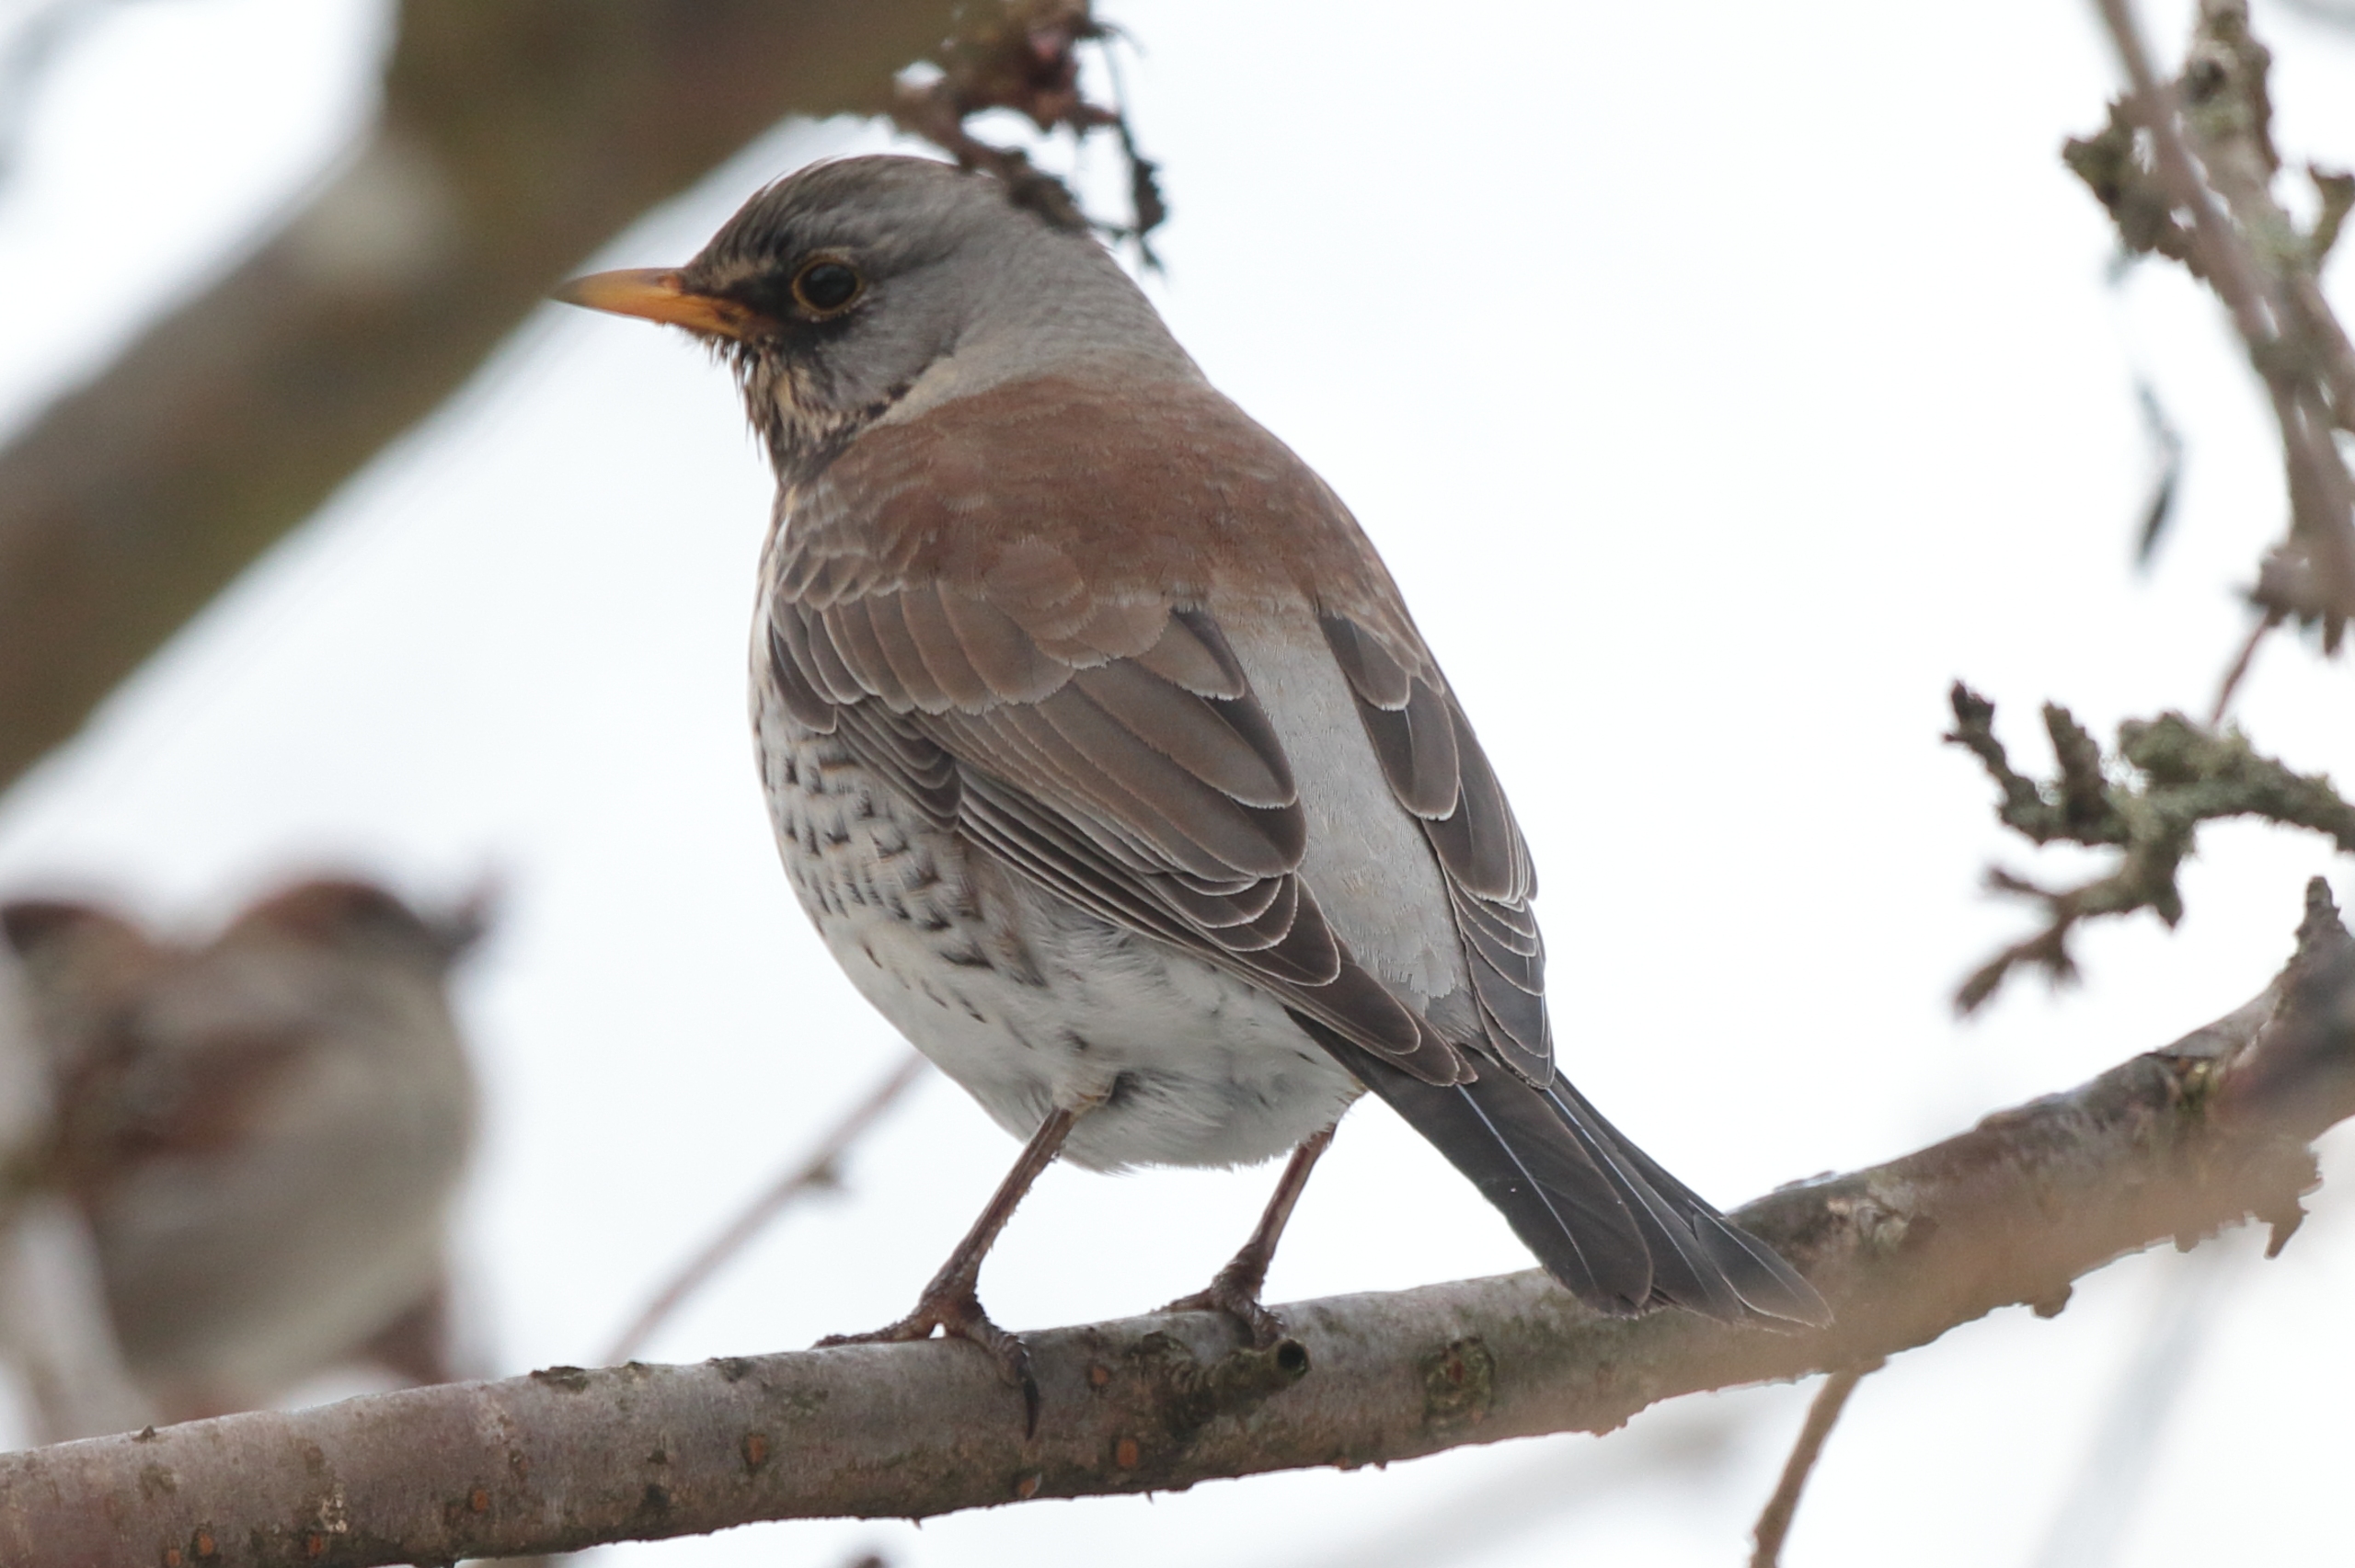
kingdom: Animalia
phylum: Chordata
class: Aves
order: Passeriformes
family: Turdidae
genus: Turdus
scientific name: Turdus pilaris
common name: Sjagger
